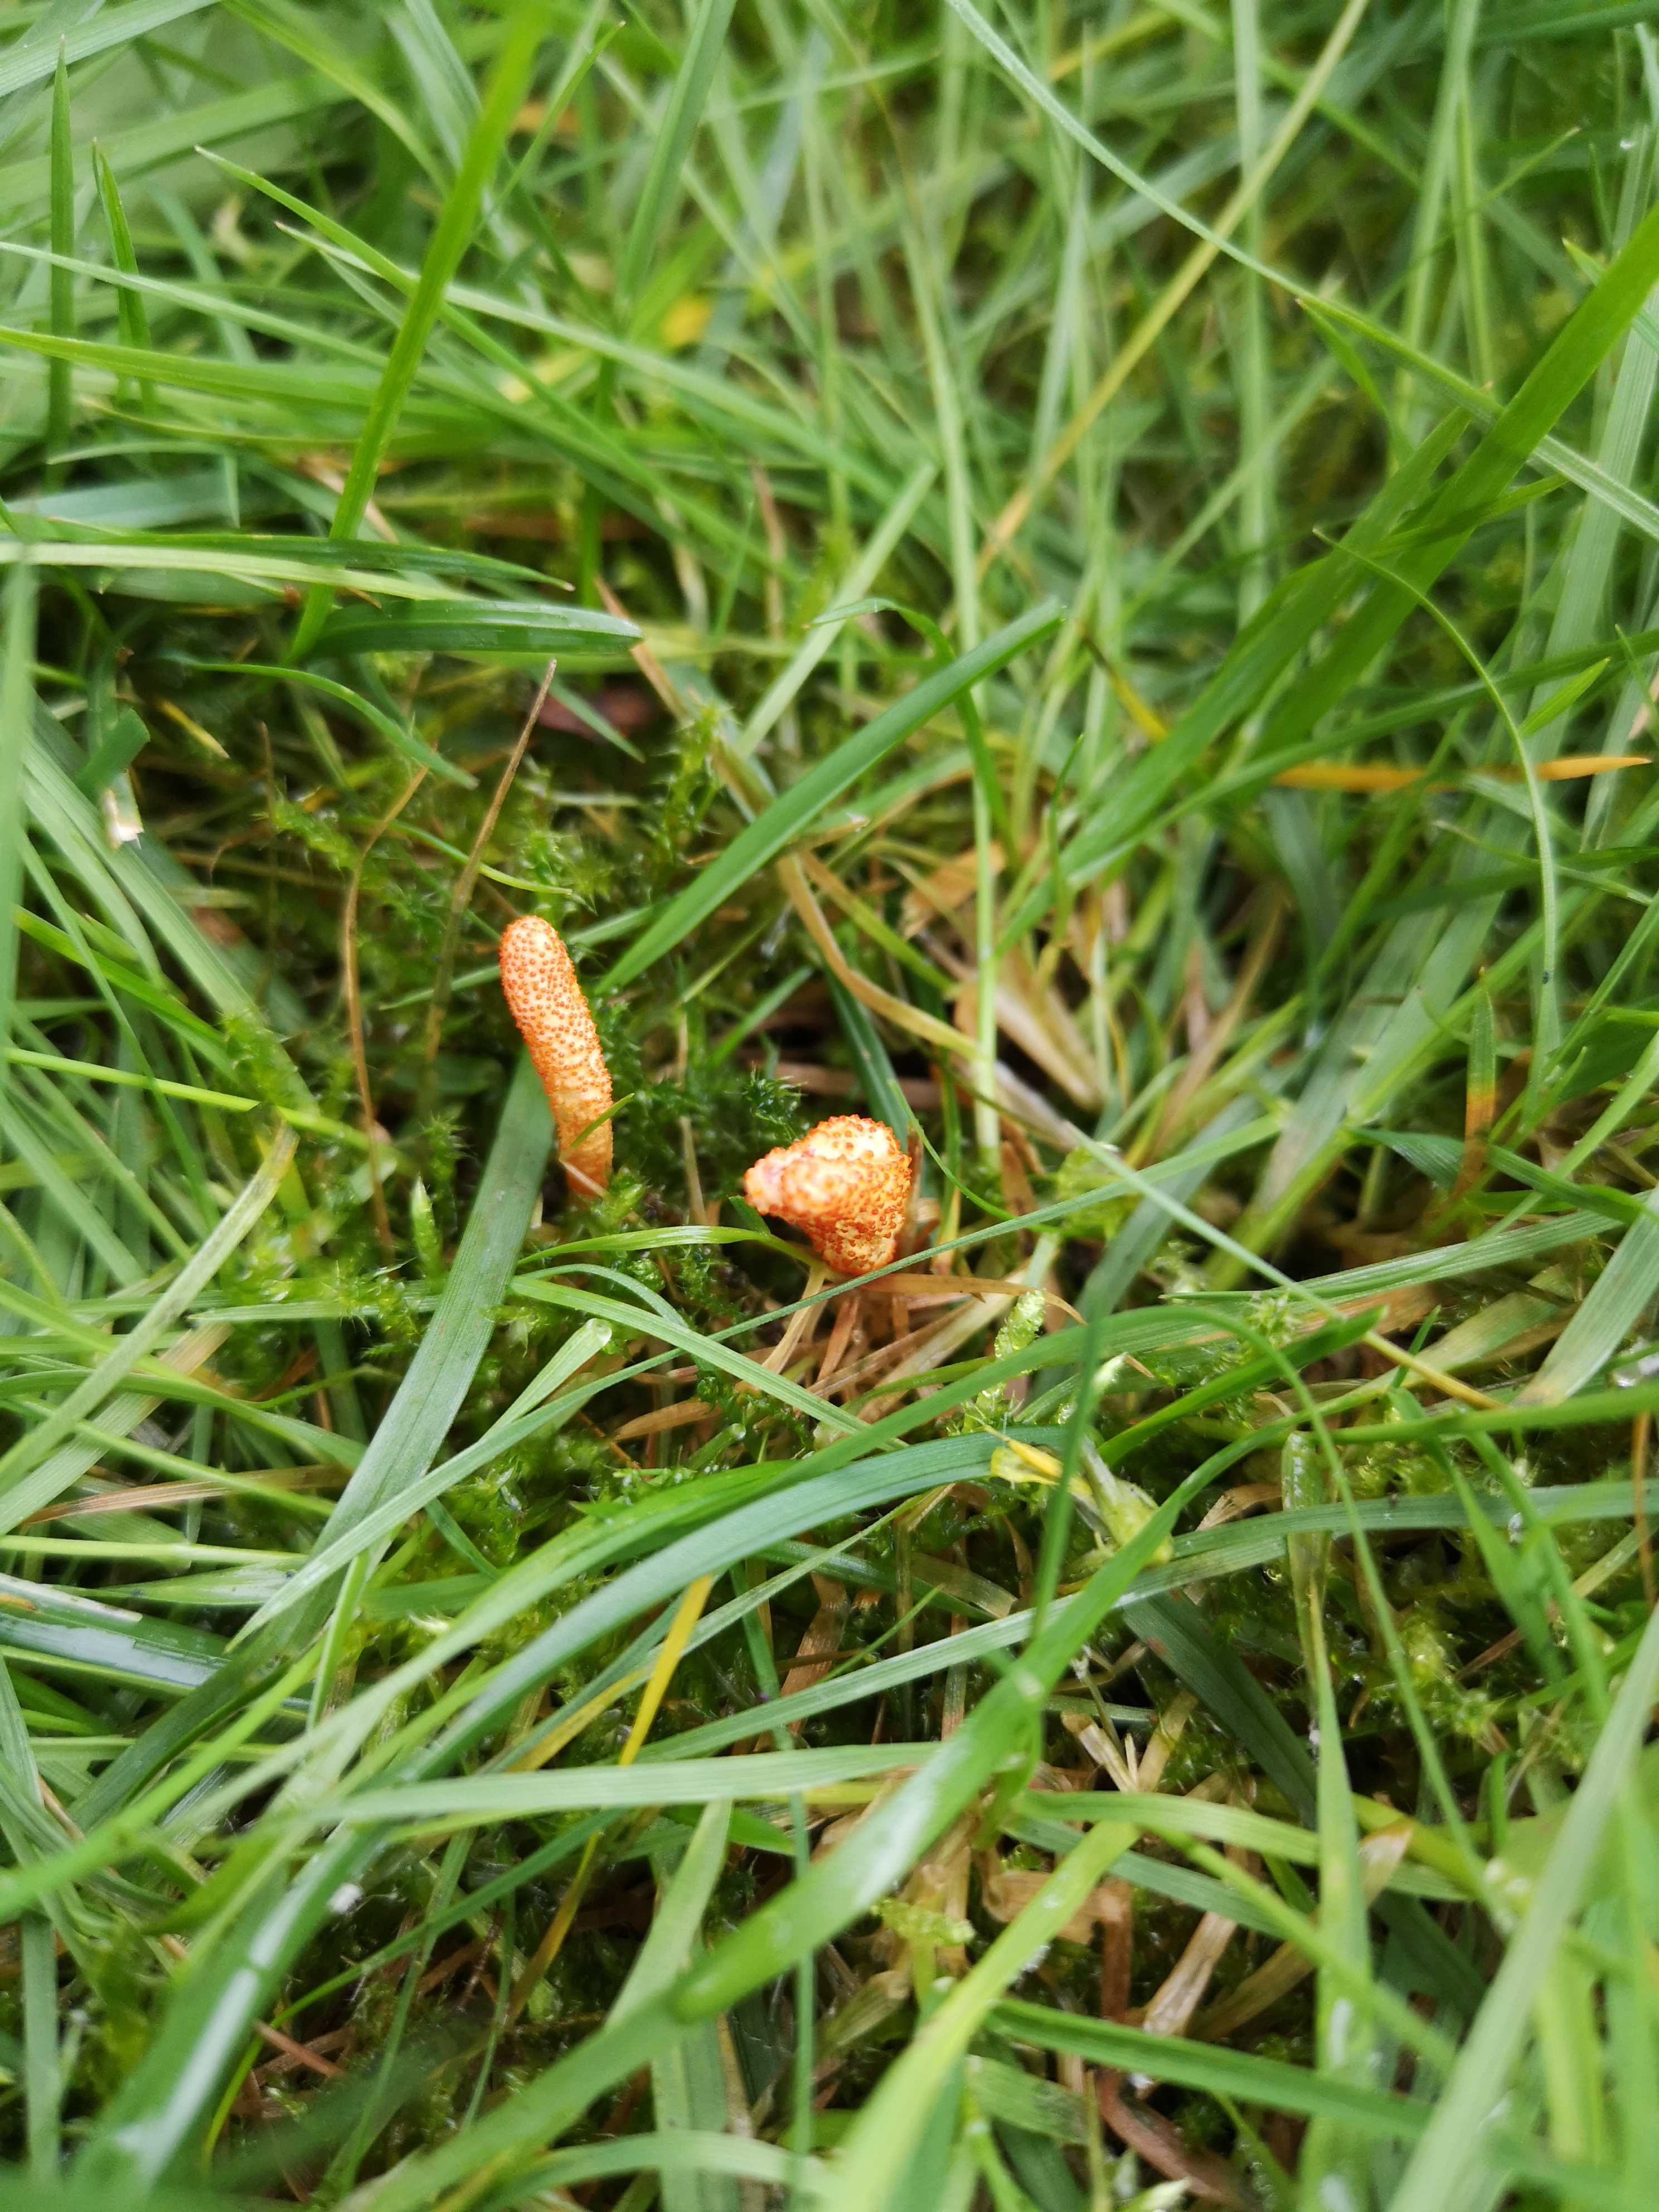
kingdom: Fungi
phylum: Ascomycota
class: Sordariomycetes
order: Hypocreales
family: Cordycipitaceae
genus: Cordyceps
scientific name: Cordyceps militaris
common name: puppe-snyltekølle
